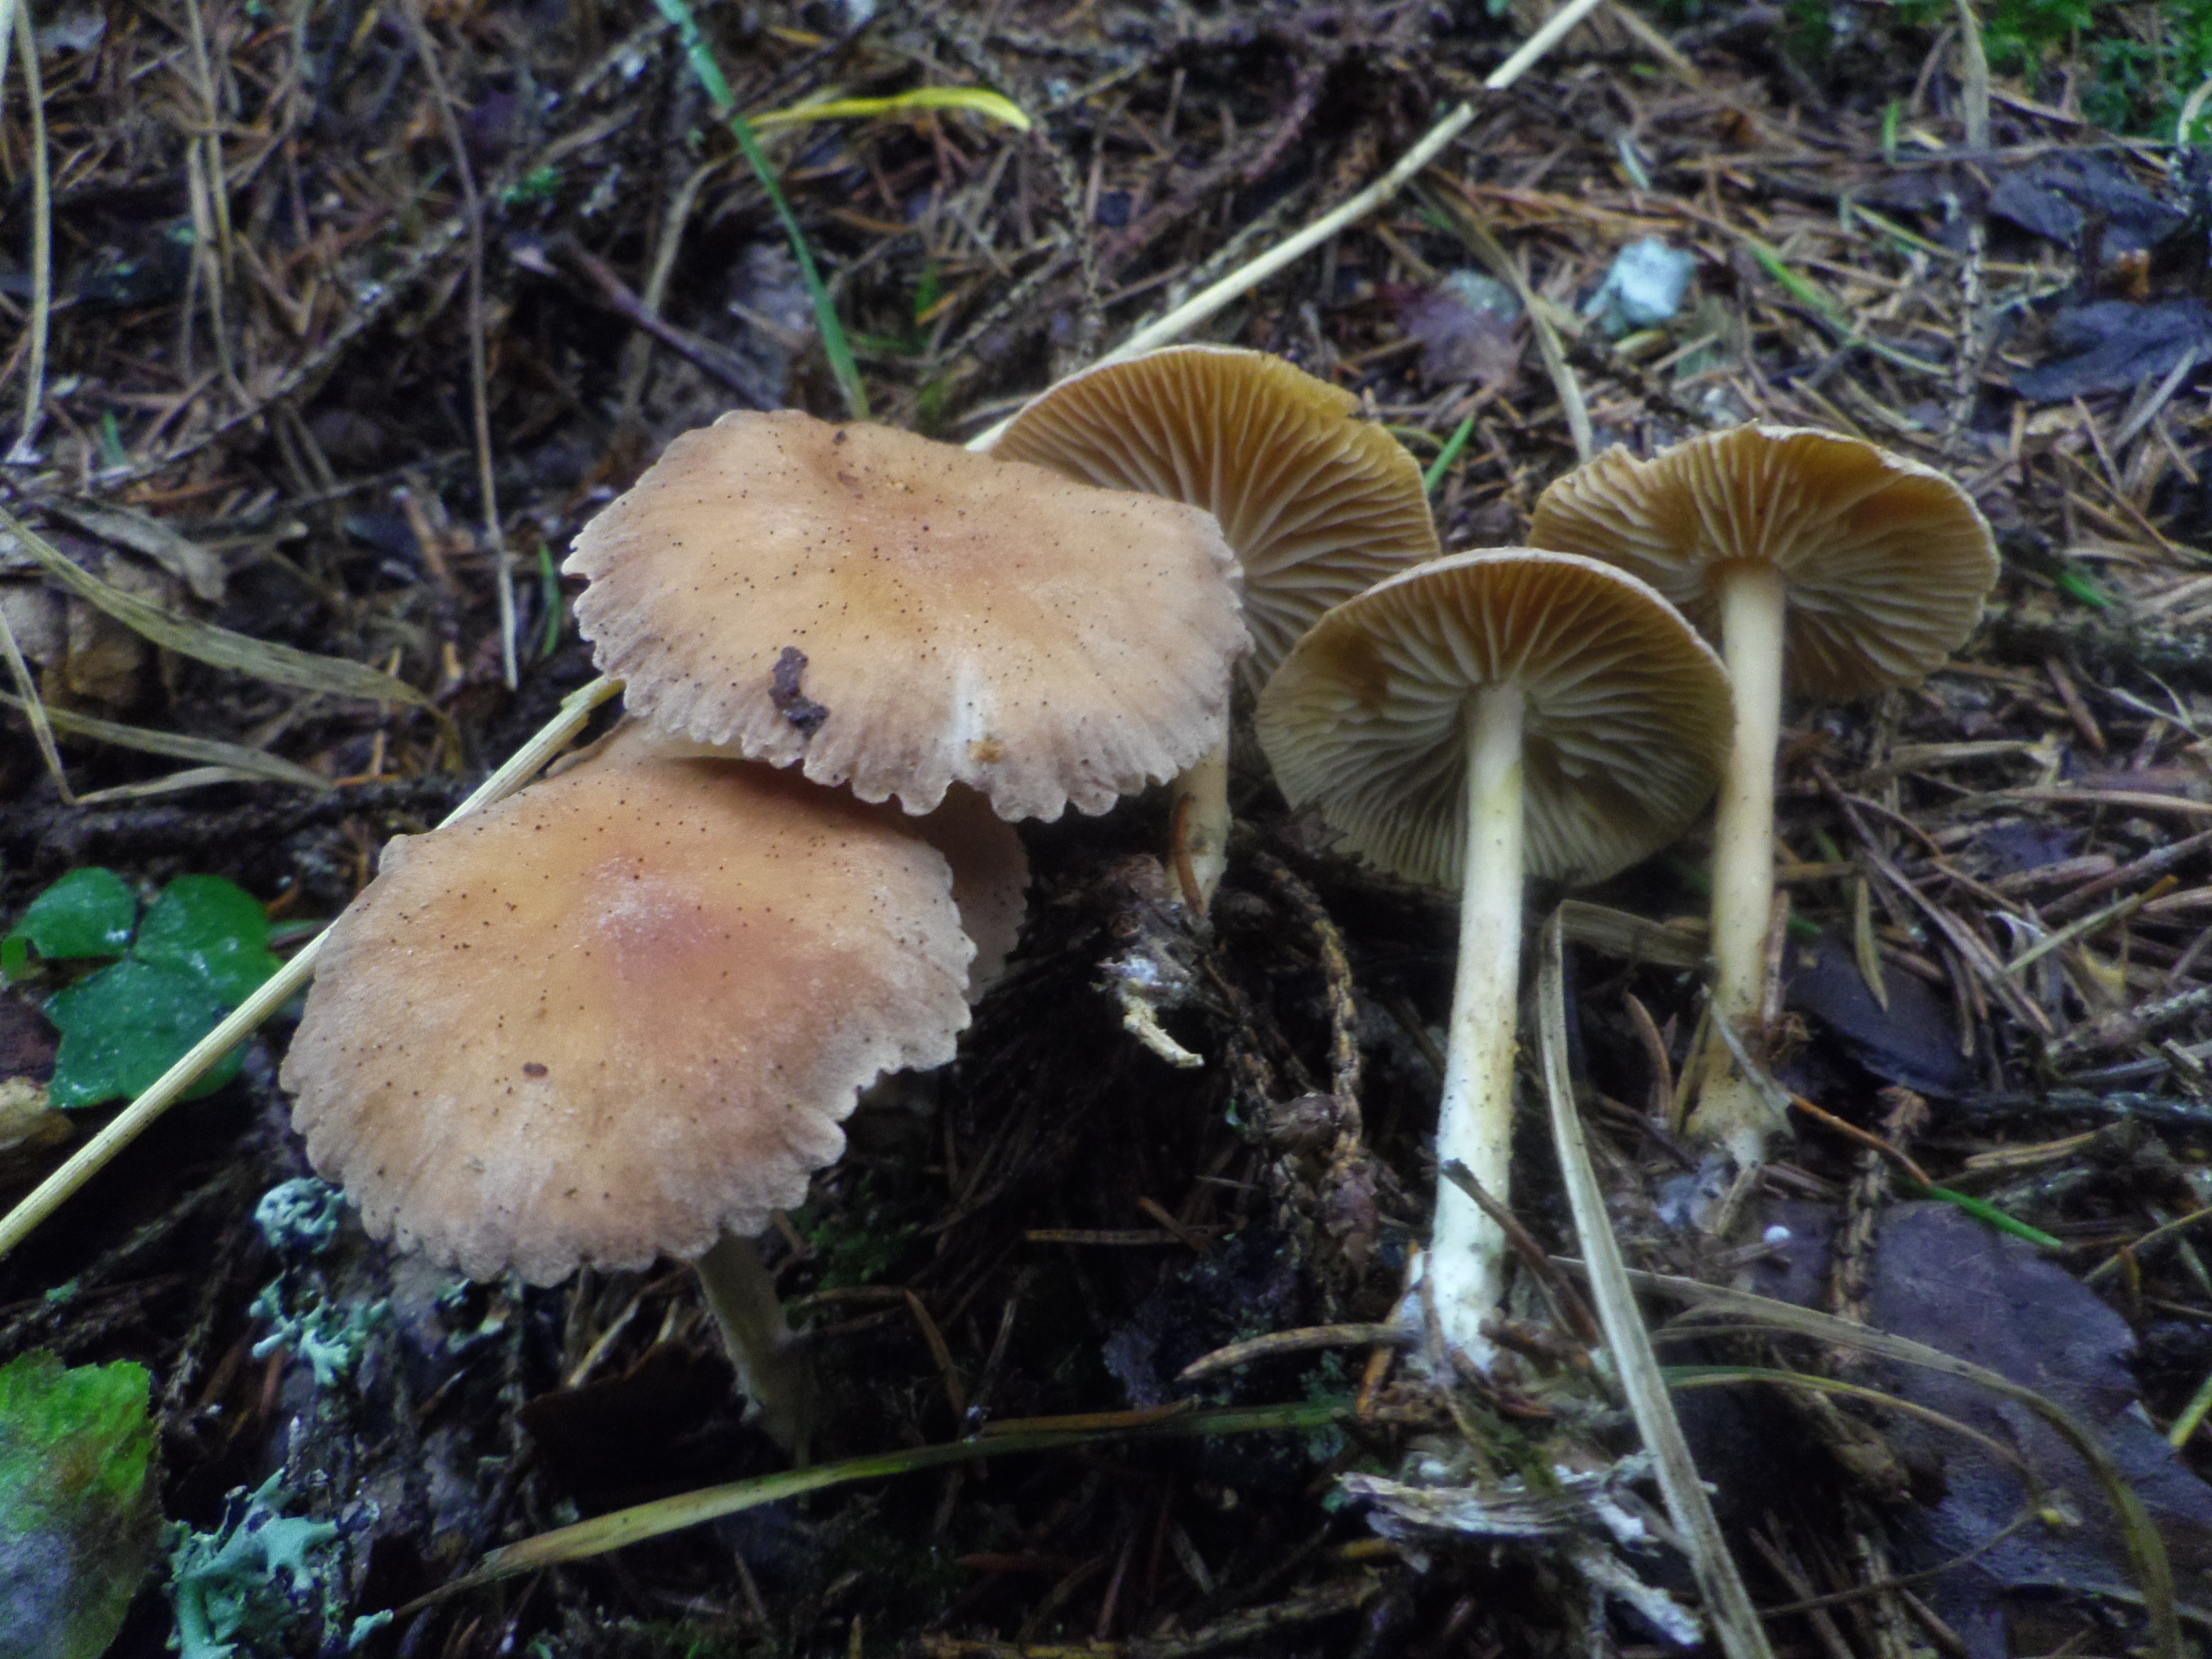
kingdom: Fungi
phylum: Basidiomycota
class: Agaricomycetes
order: Agaricales
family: Omphalotaceae
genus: Collybiopsis
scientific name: Collybiopsis peronata
